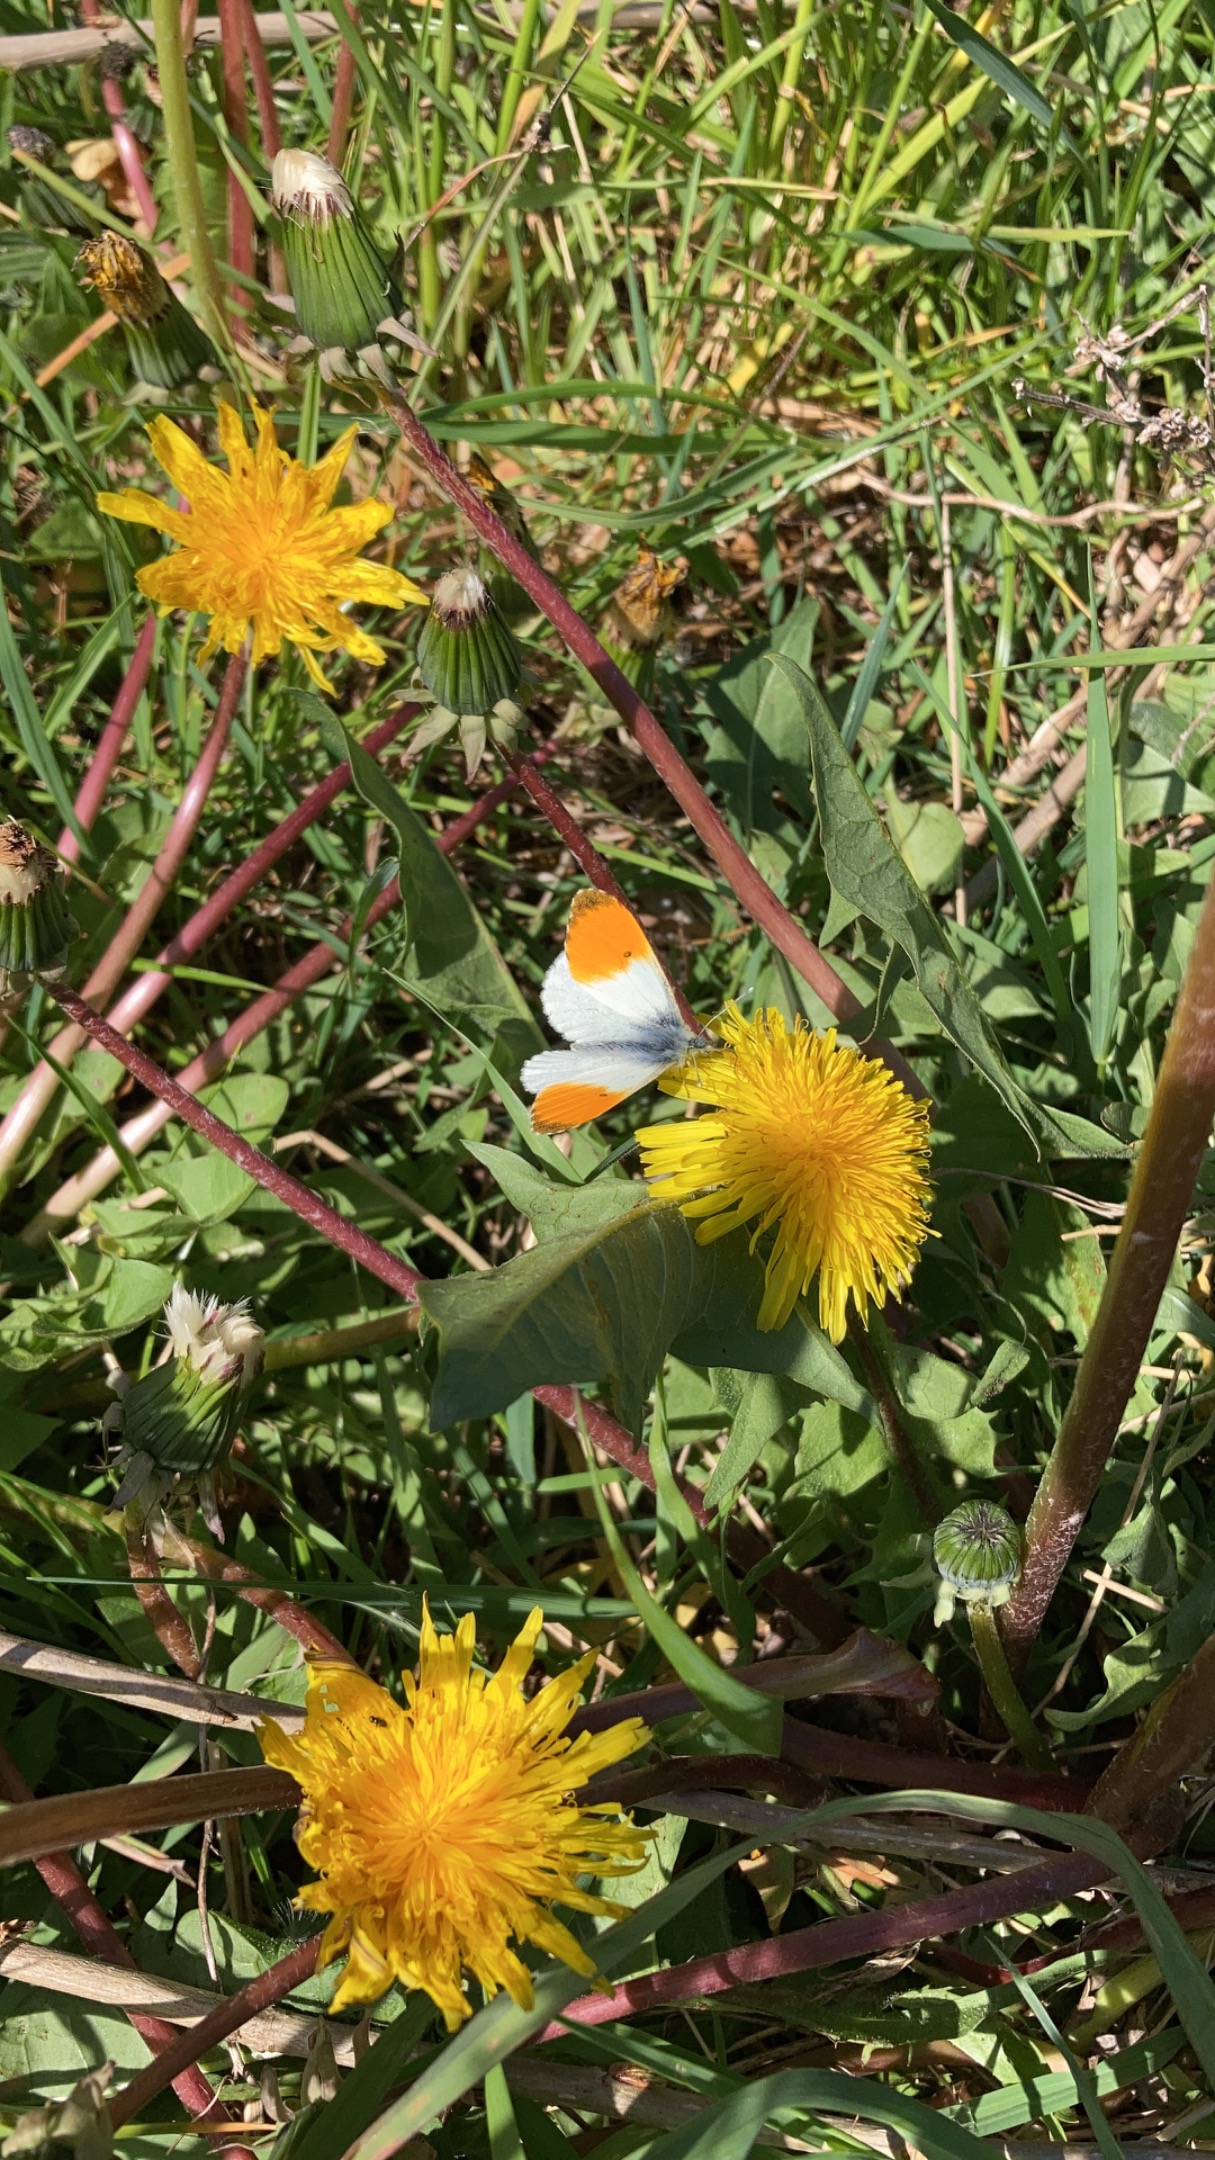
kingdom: Animalia
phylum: Arthropoda
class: Insecta
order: Lepidoptera
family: Pieridae
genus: Anthocharis
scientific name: Anthocharis cardamines
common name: Aurora
